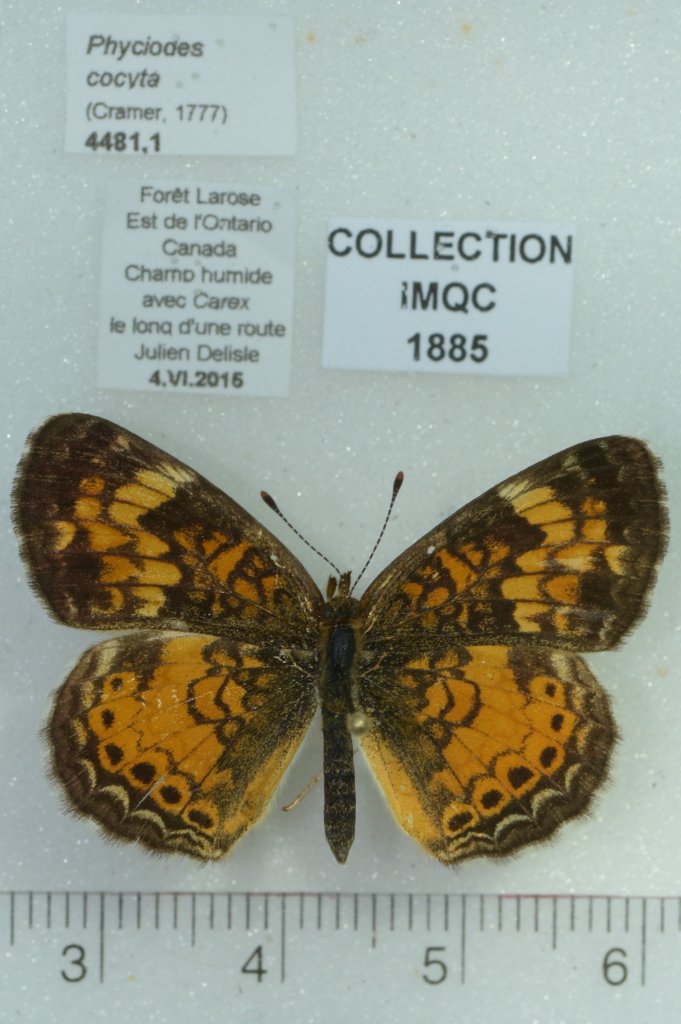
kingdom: Animalia
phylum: Arthropoda
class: Insecta
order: Lepidoptera
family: Nymphalidae
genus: Phyciodes
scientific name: Phyciodes tharos
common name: Northern Crescent
